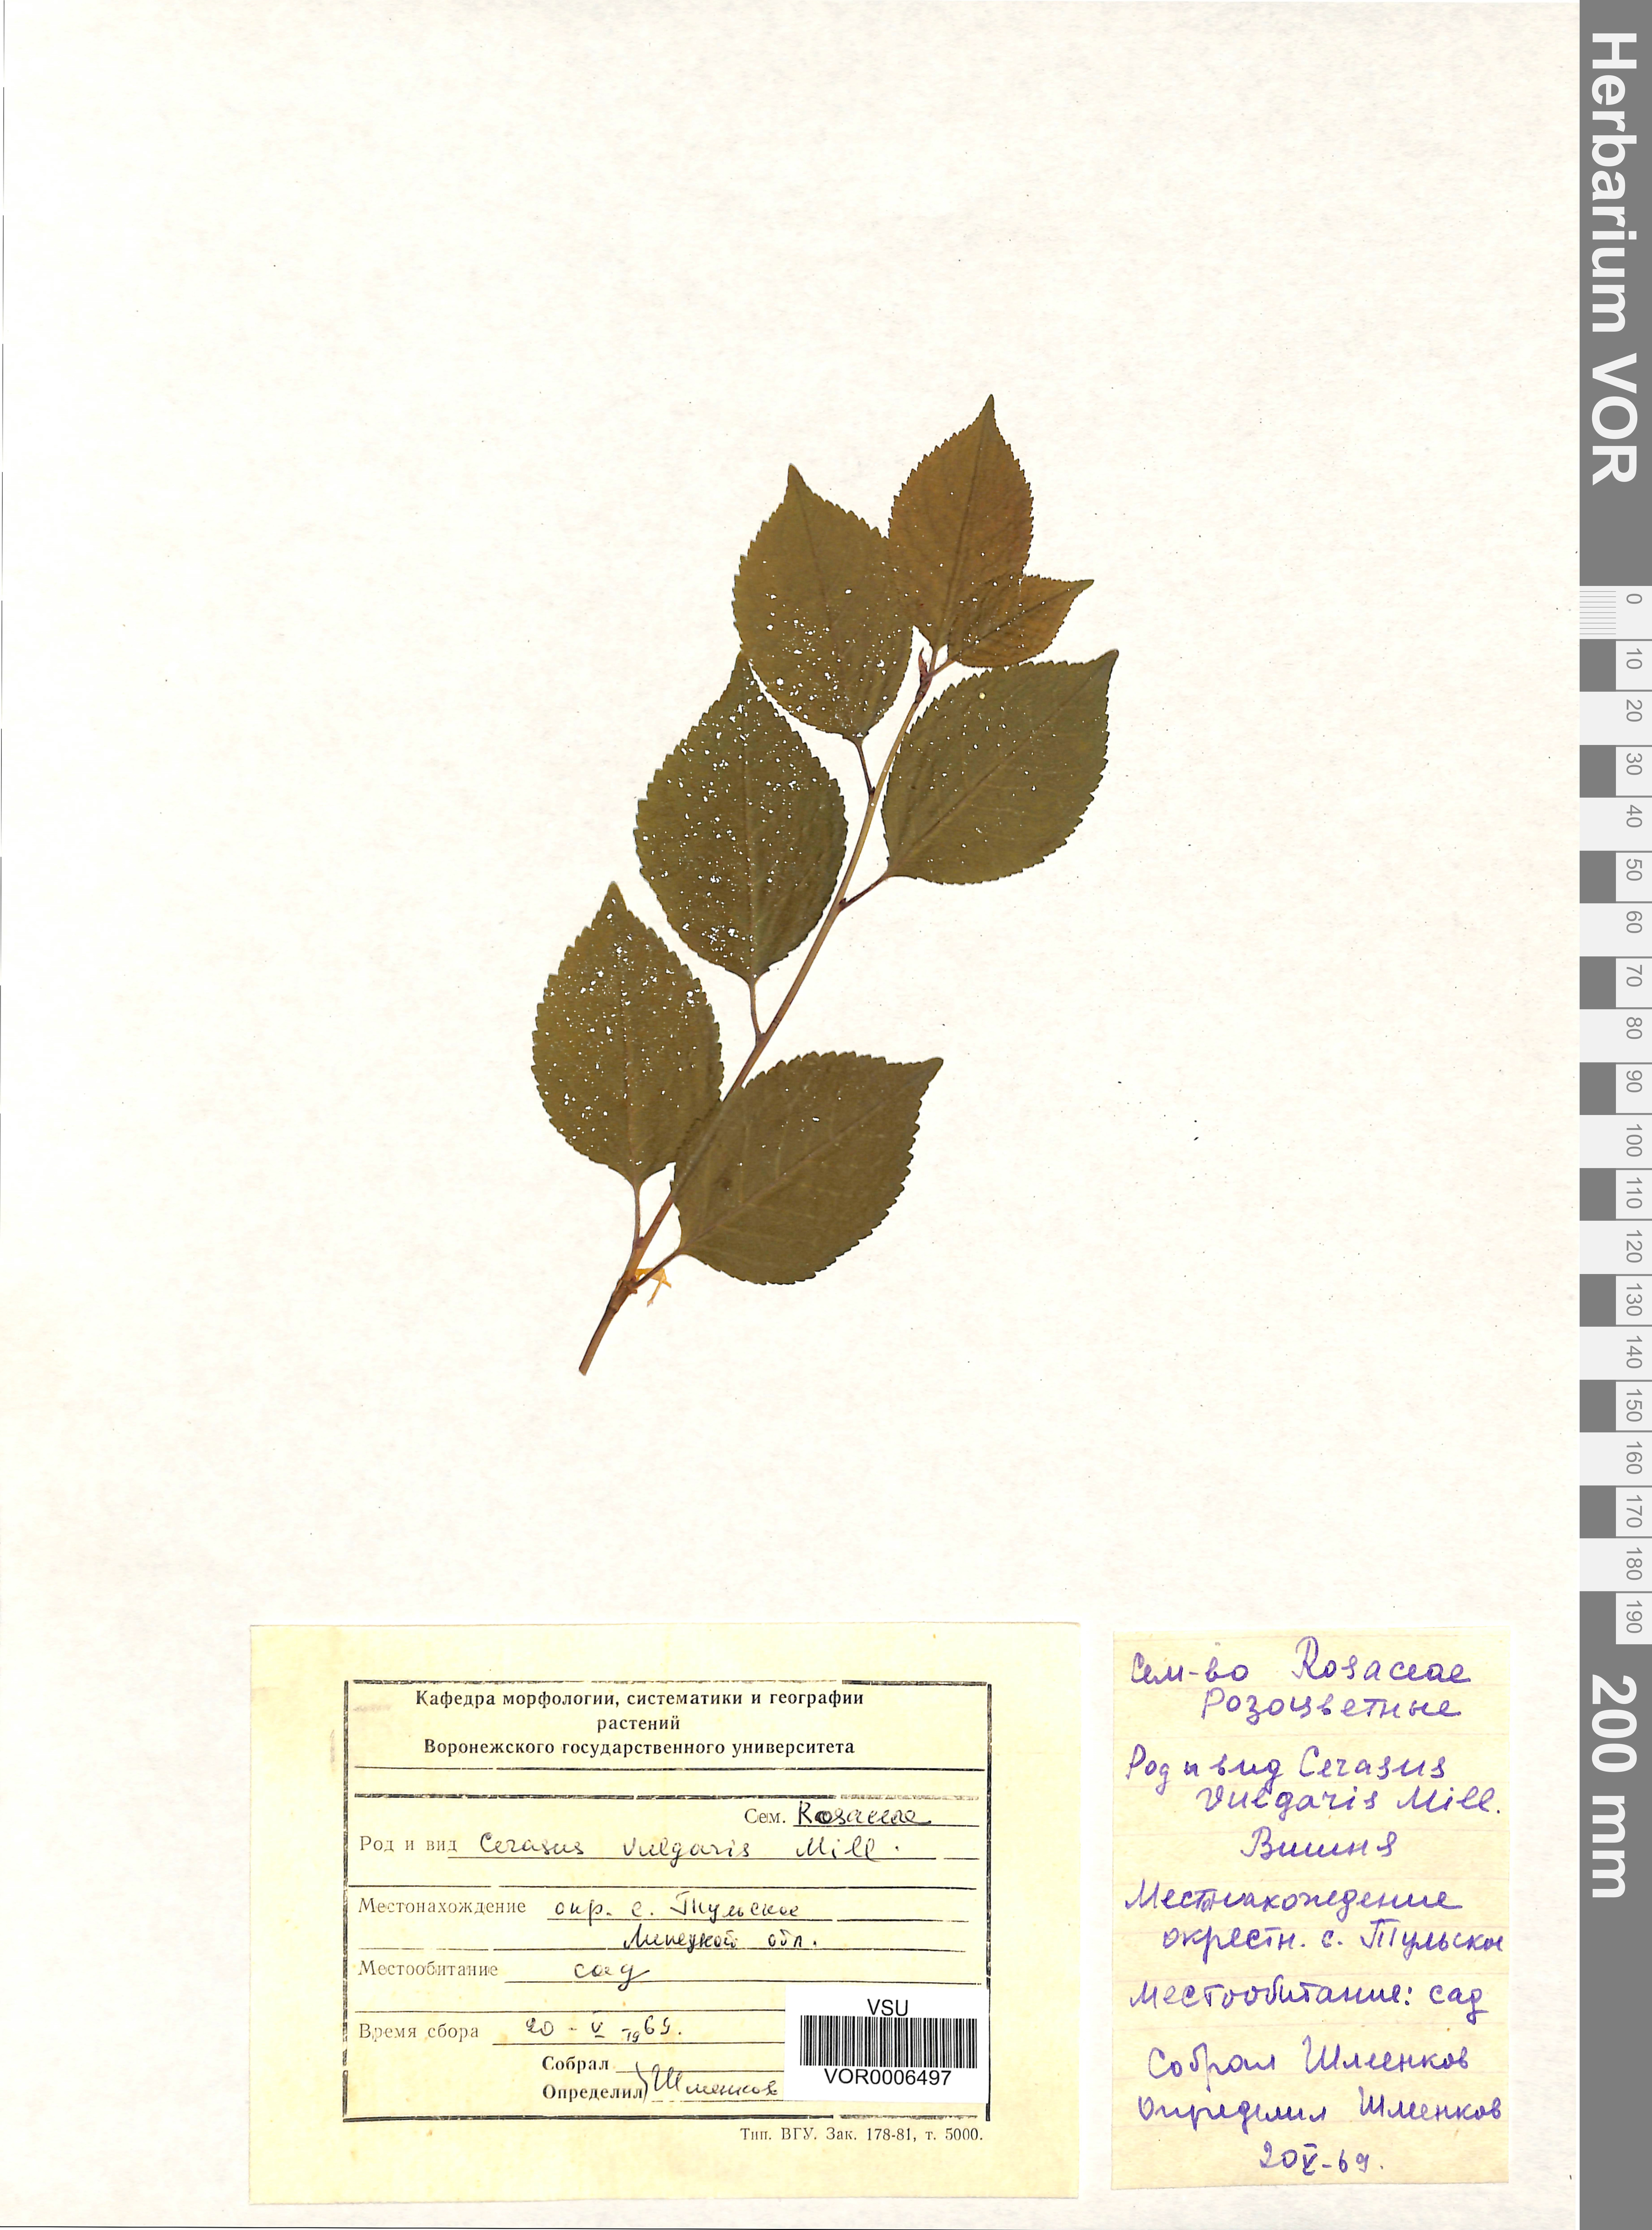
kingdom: Plantae
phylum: Tracheophyta
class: Magnoliopsida
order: Rosales
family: Rosaceae
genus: Prunus
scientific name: Prunus cerasus
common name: Morello cherry
